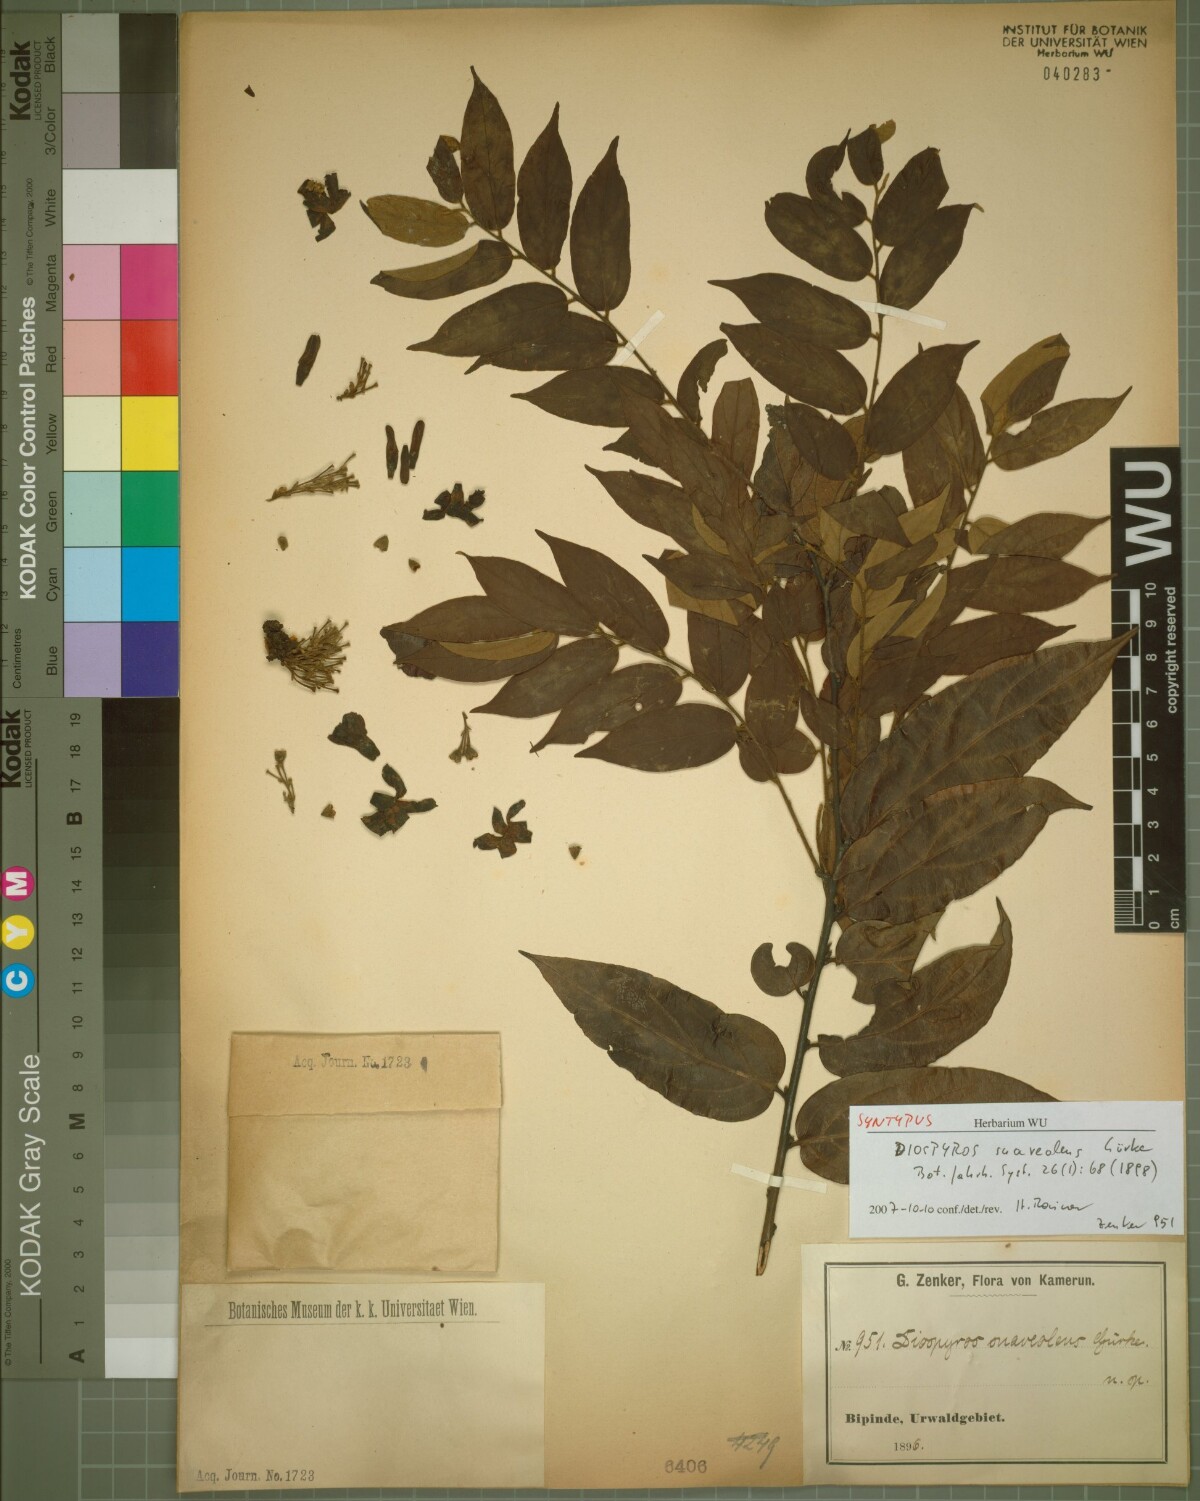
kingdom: Plantae
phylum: Tracheophyta
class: Magnoliopsida
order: Ericales
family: Ebenaceae
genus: Diospyros
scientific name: Diospyros suaveolens
